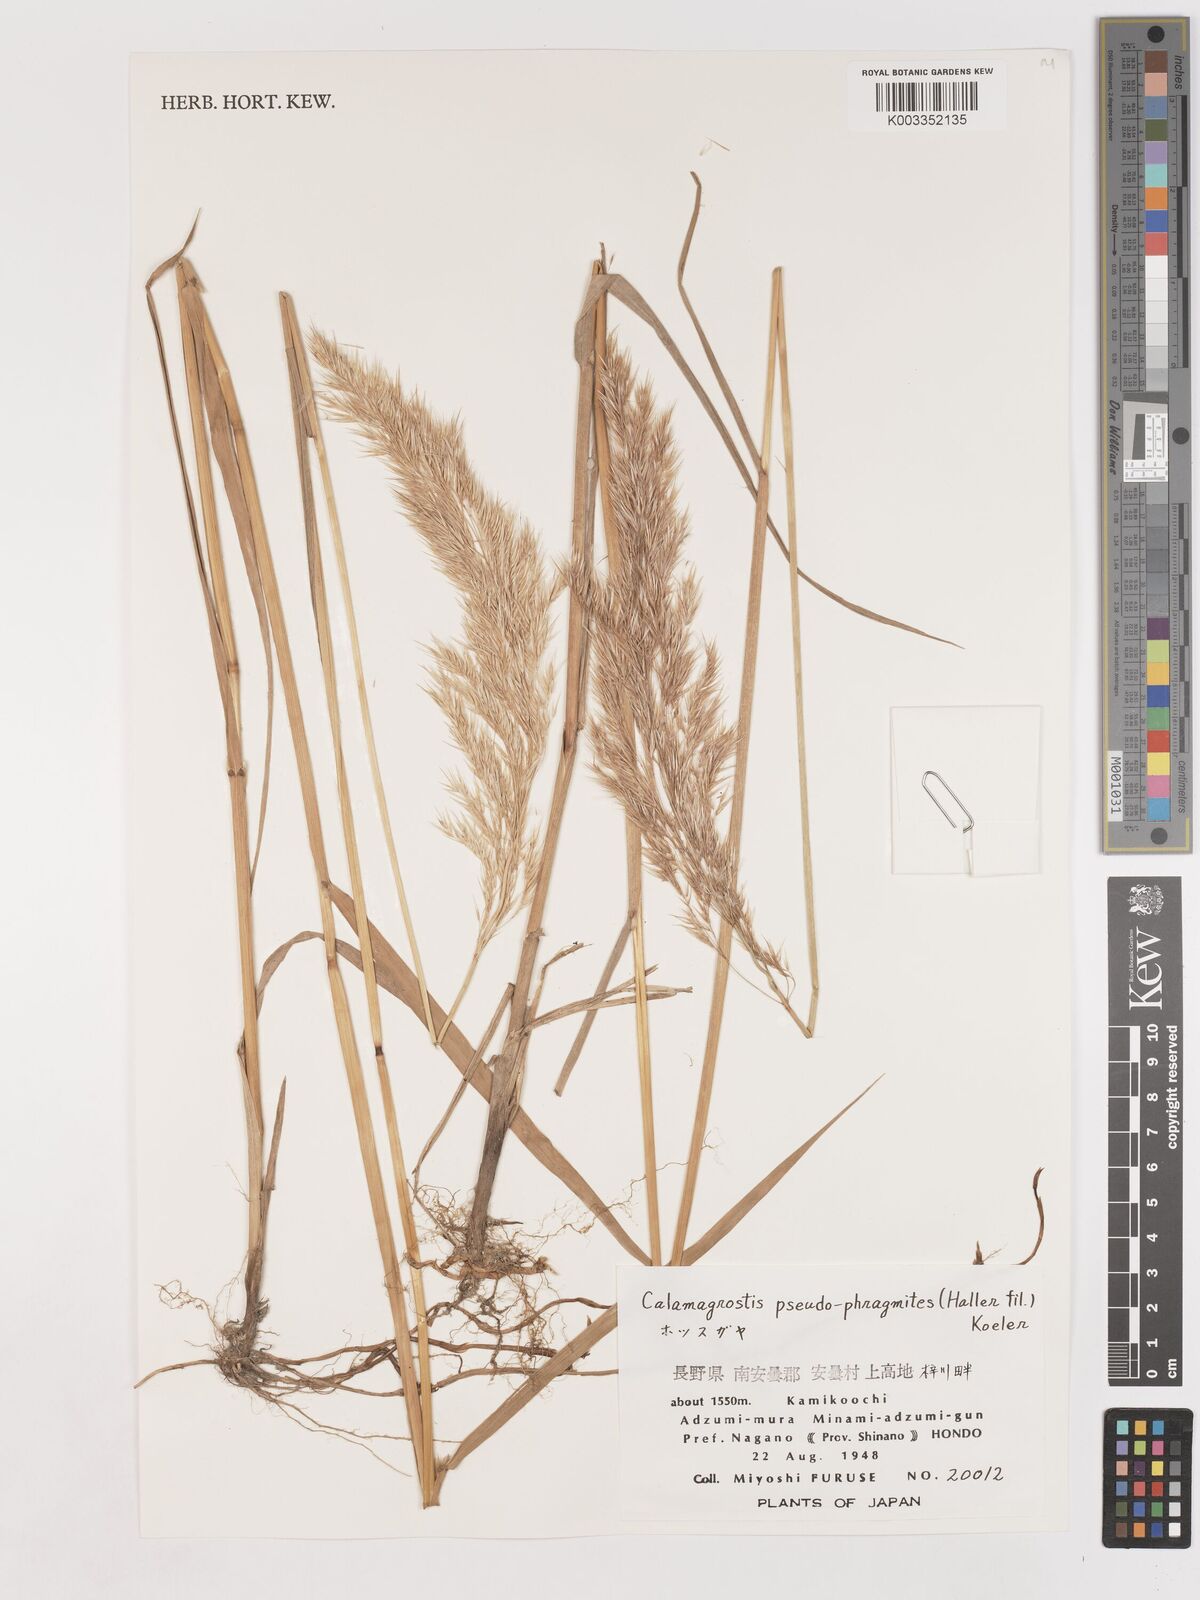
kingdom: Plantae
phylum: Tracheophyta
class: Liliopsida
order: Poales
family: Poaceae
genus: Calamagrostis
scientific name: Calamagrostis pseudophragmites
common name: Coastal small-reed
